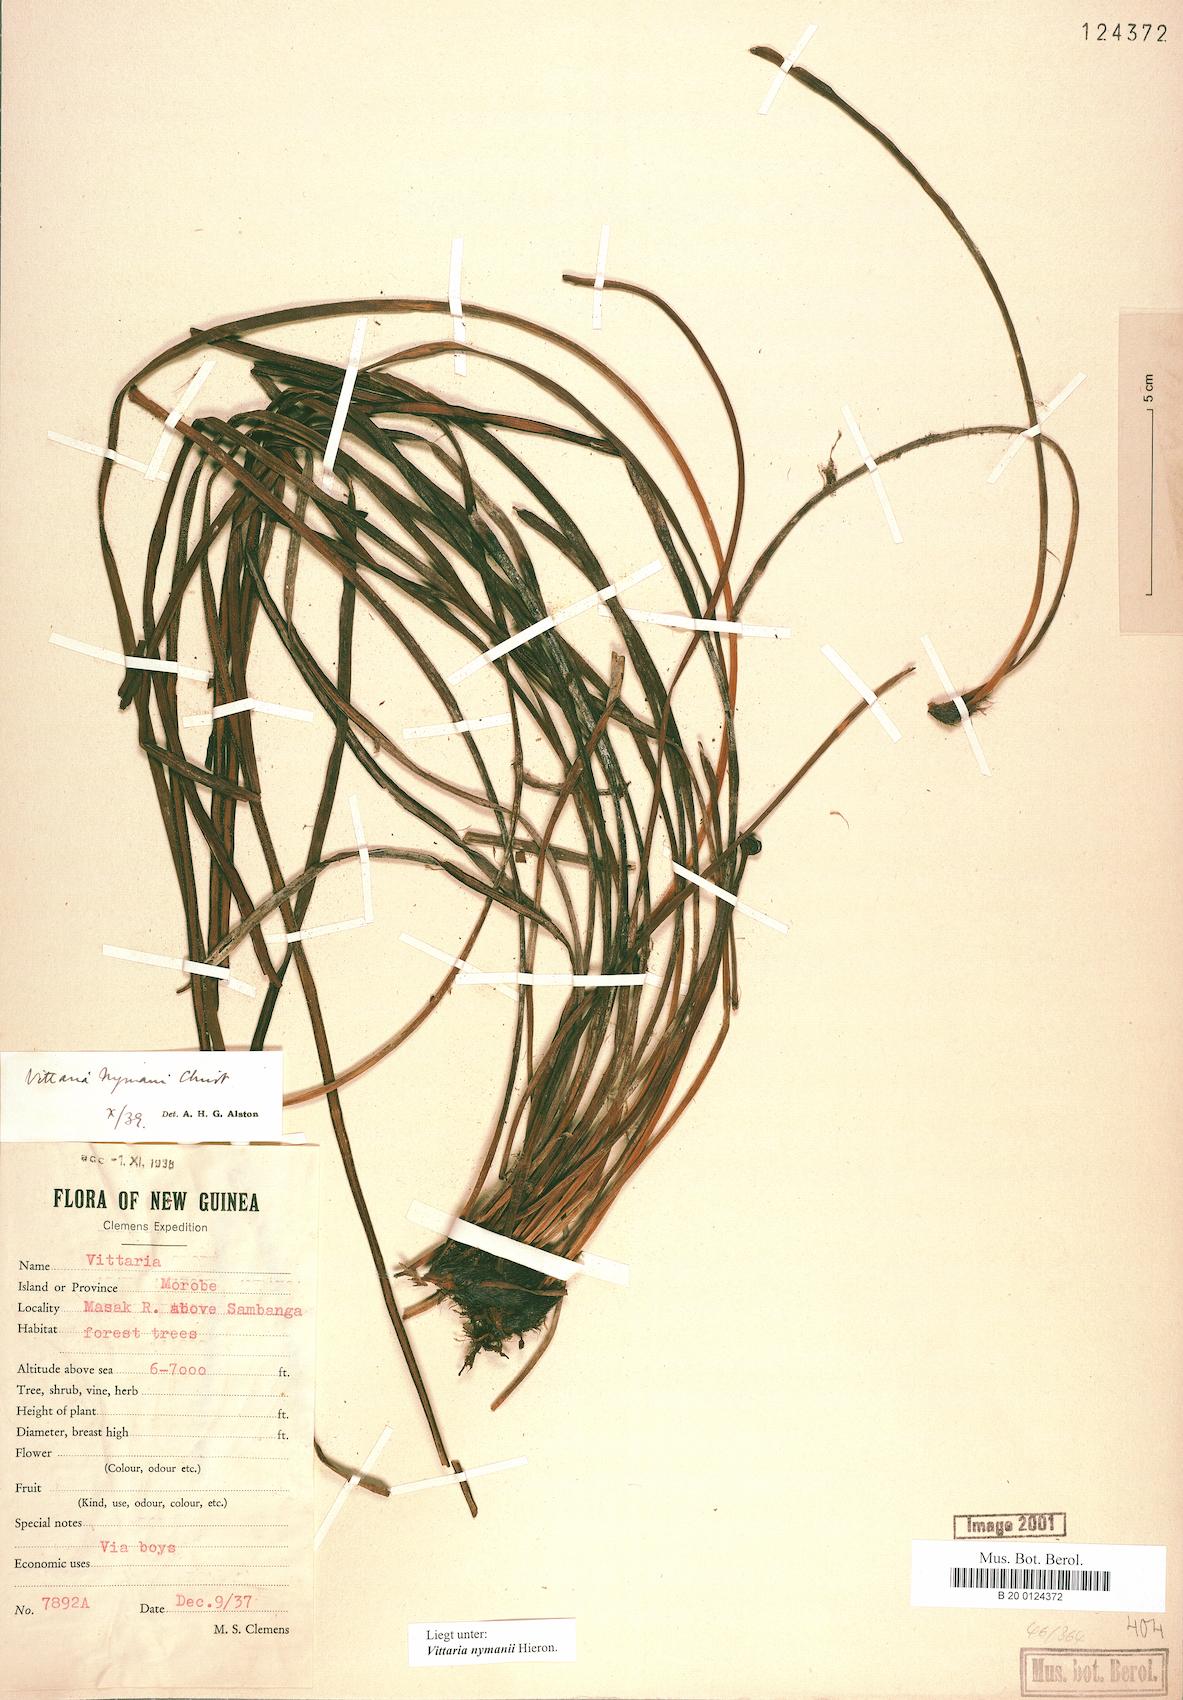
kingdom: Plantae
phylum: Tracheophyta
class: Polypodiopsida
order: Polypodiales
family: Pteridaceae
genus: Haplopteris
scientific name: Haplopteris elongata
